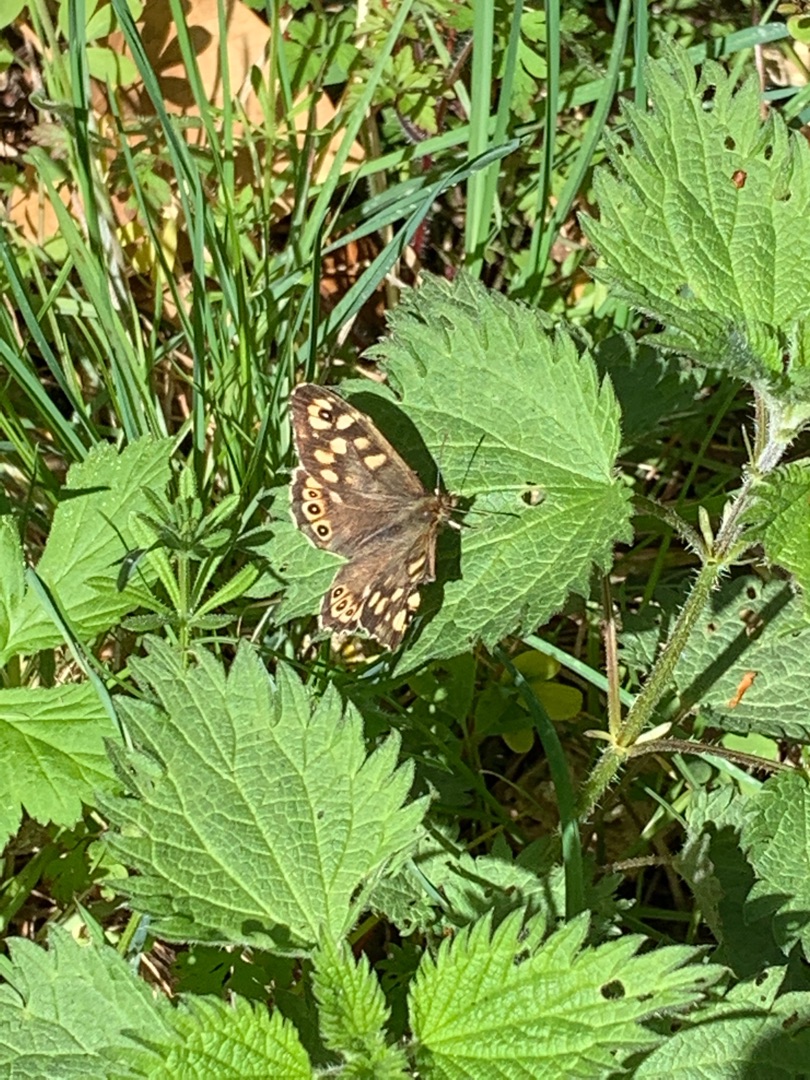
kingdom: Animalia
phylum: Arthropoda
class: Insecta
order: Lepidoptera
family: Nymphalidae
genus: Pararge
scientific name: Pararge aegeria
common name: Skovrandøje
